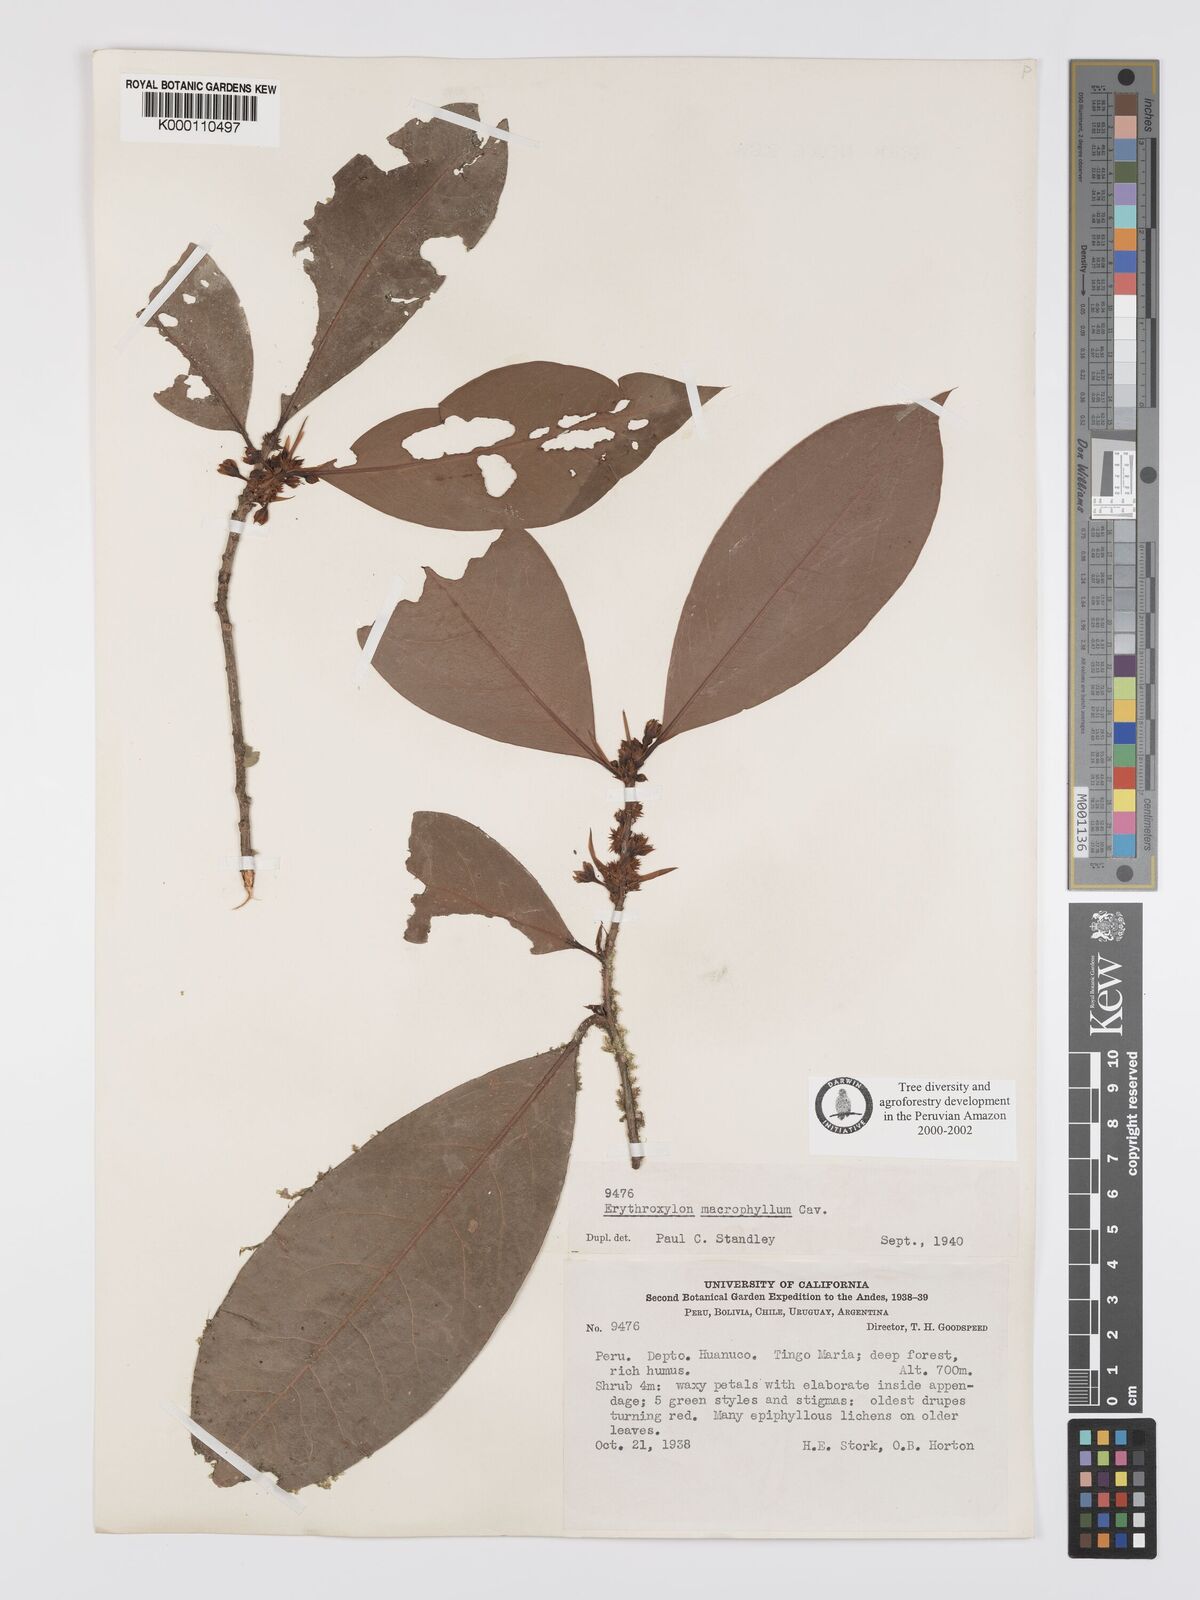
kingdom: Plantae
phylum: Tracheophyta
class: Magnoliopsida
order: Malpighiales
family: Erythroxylaceae
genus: Erythroxylum
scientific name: Erythroxylum
